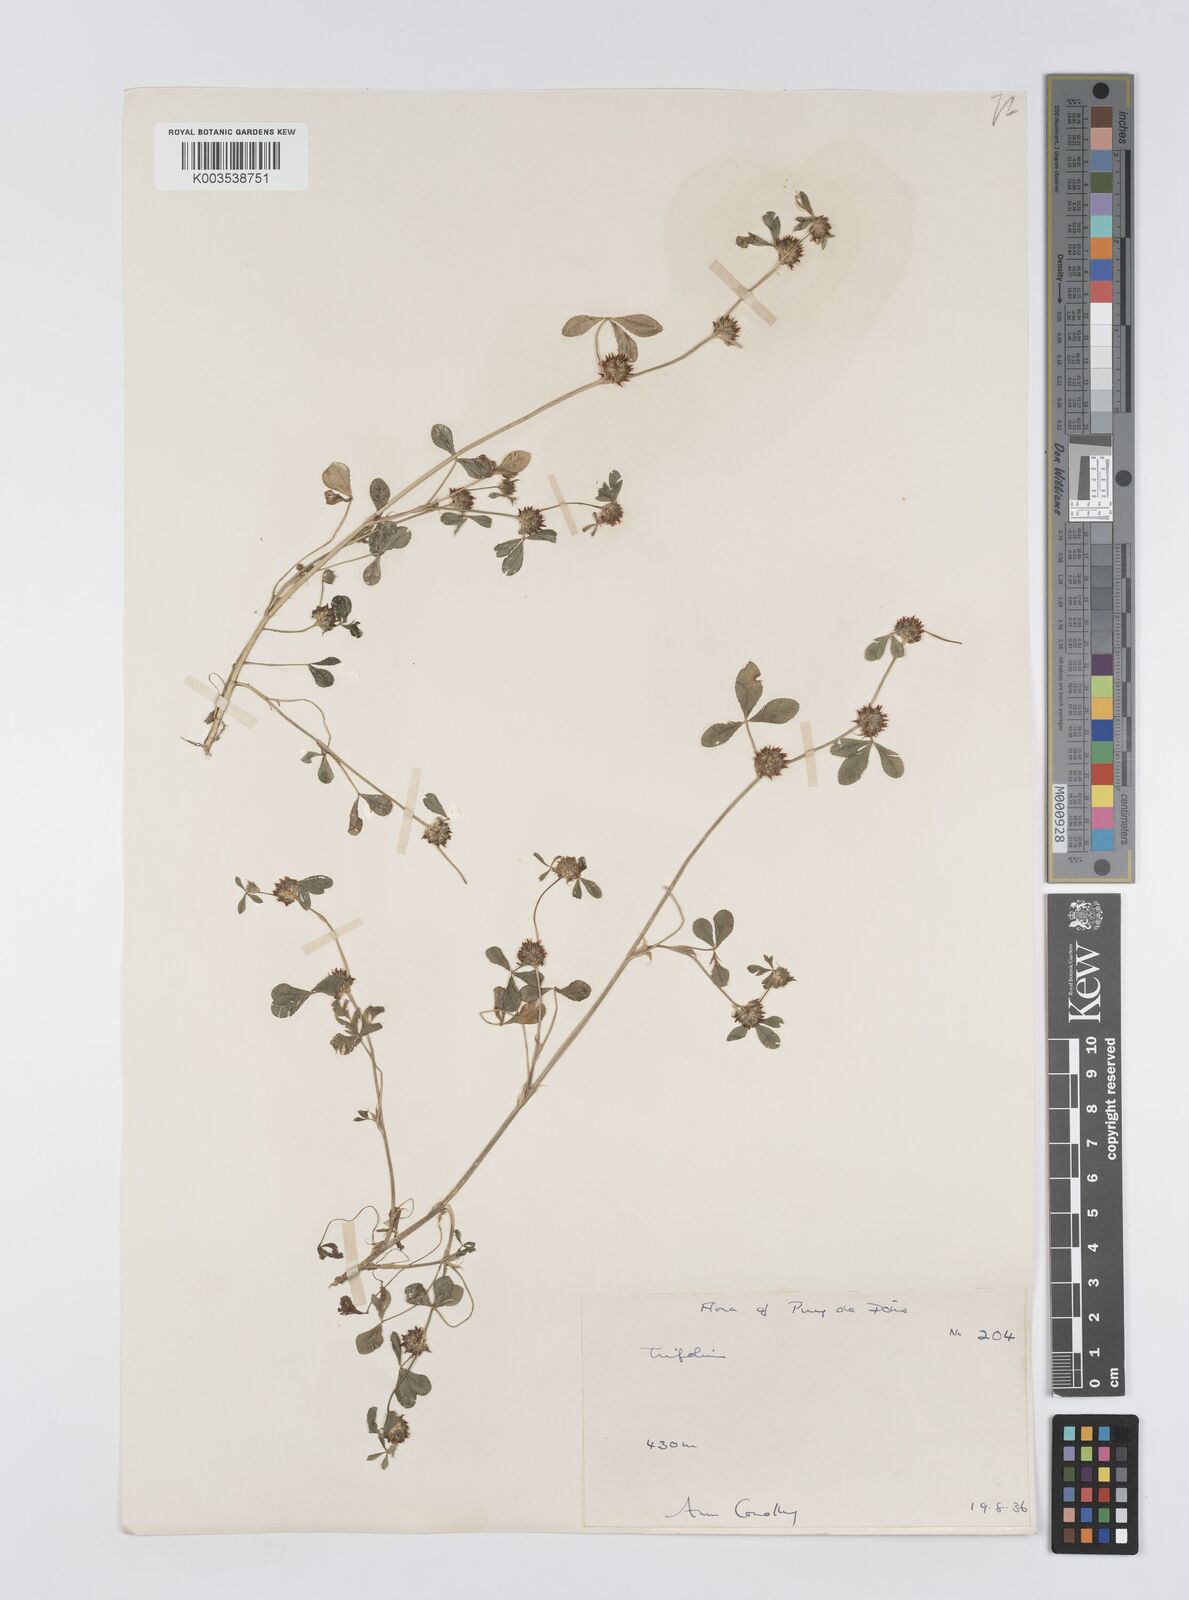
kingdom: Plantae
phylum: Tracheophyta
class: Magnoliopsida
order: Fabales
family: Fabaceae
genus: Trifolium
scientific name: Trifolium glomeratum
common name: Clustered clover
